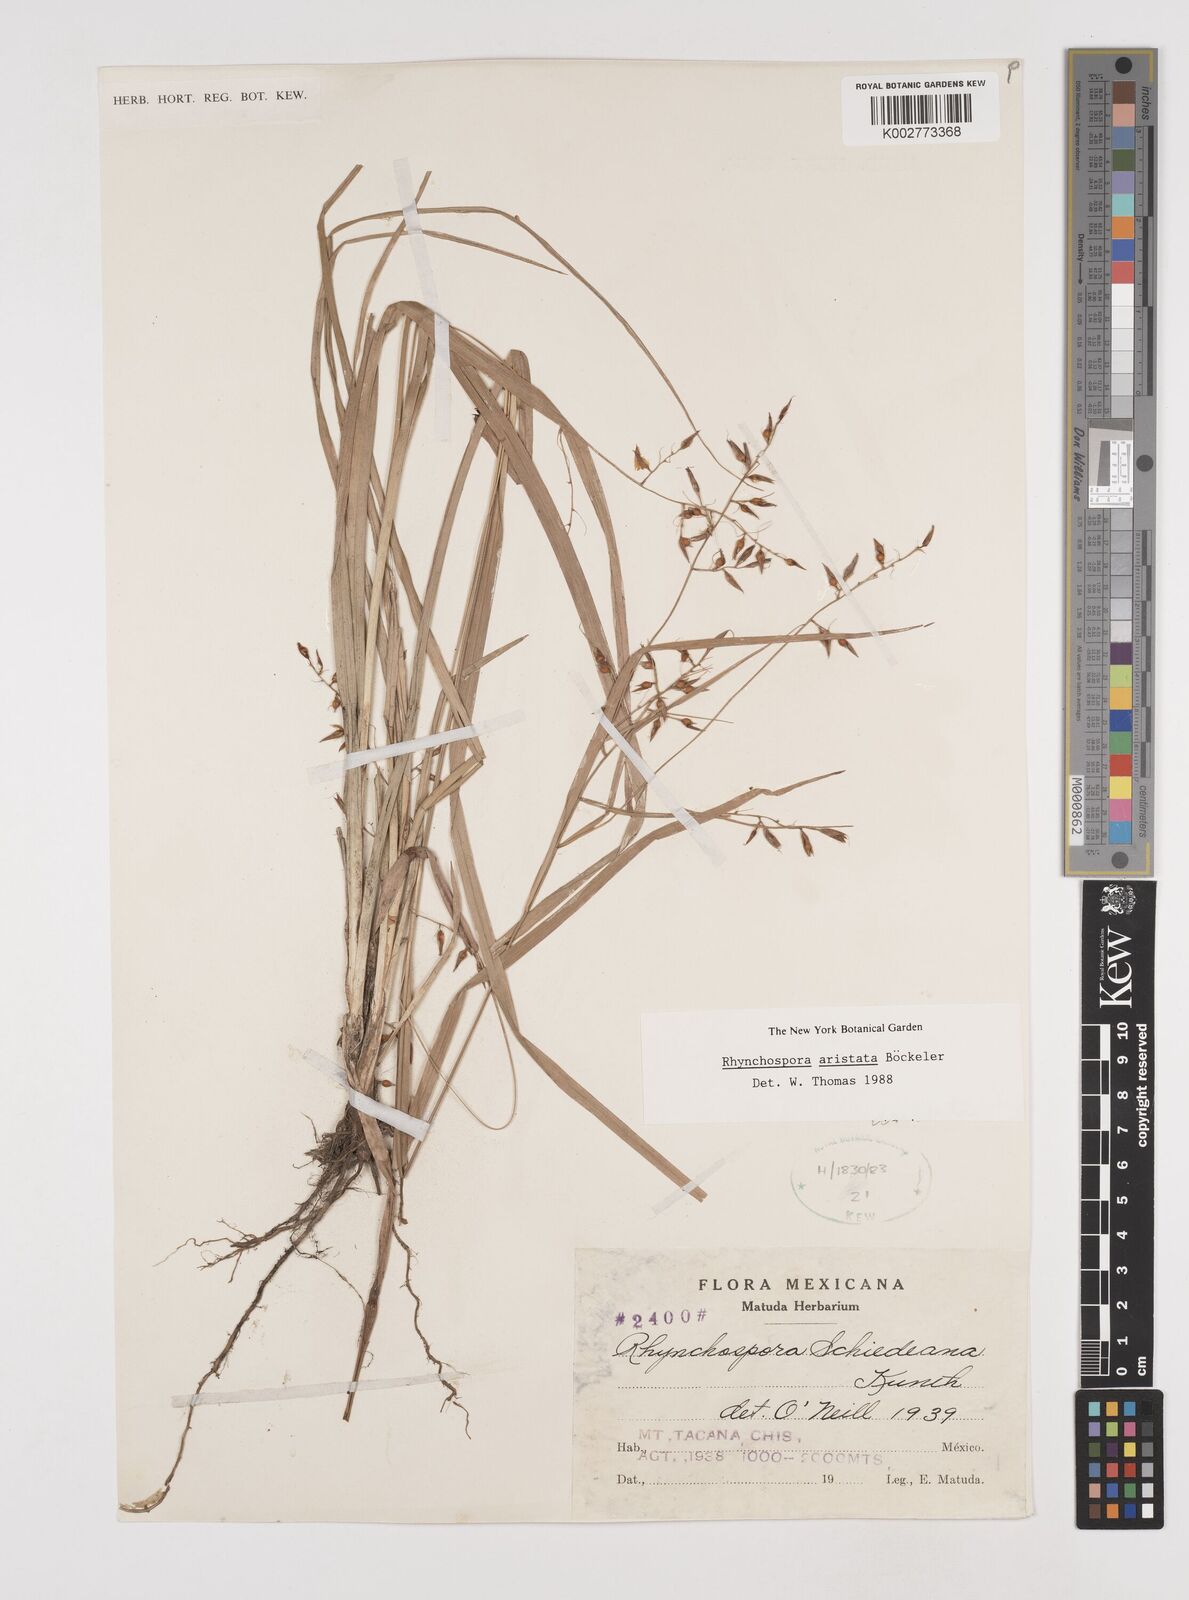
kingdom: Plantae
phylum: Tracheophyta
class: Liliopsida
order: Poales
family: Cyperaceae
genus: Rhynchospora
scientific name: Rhynchospora aristata
